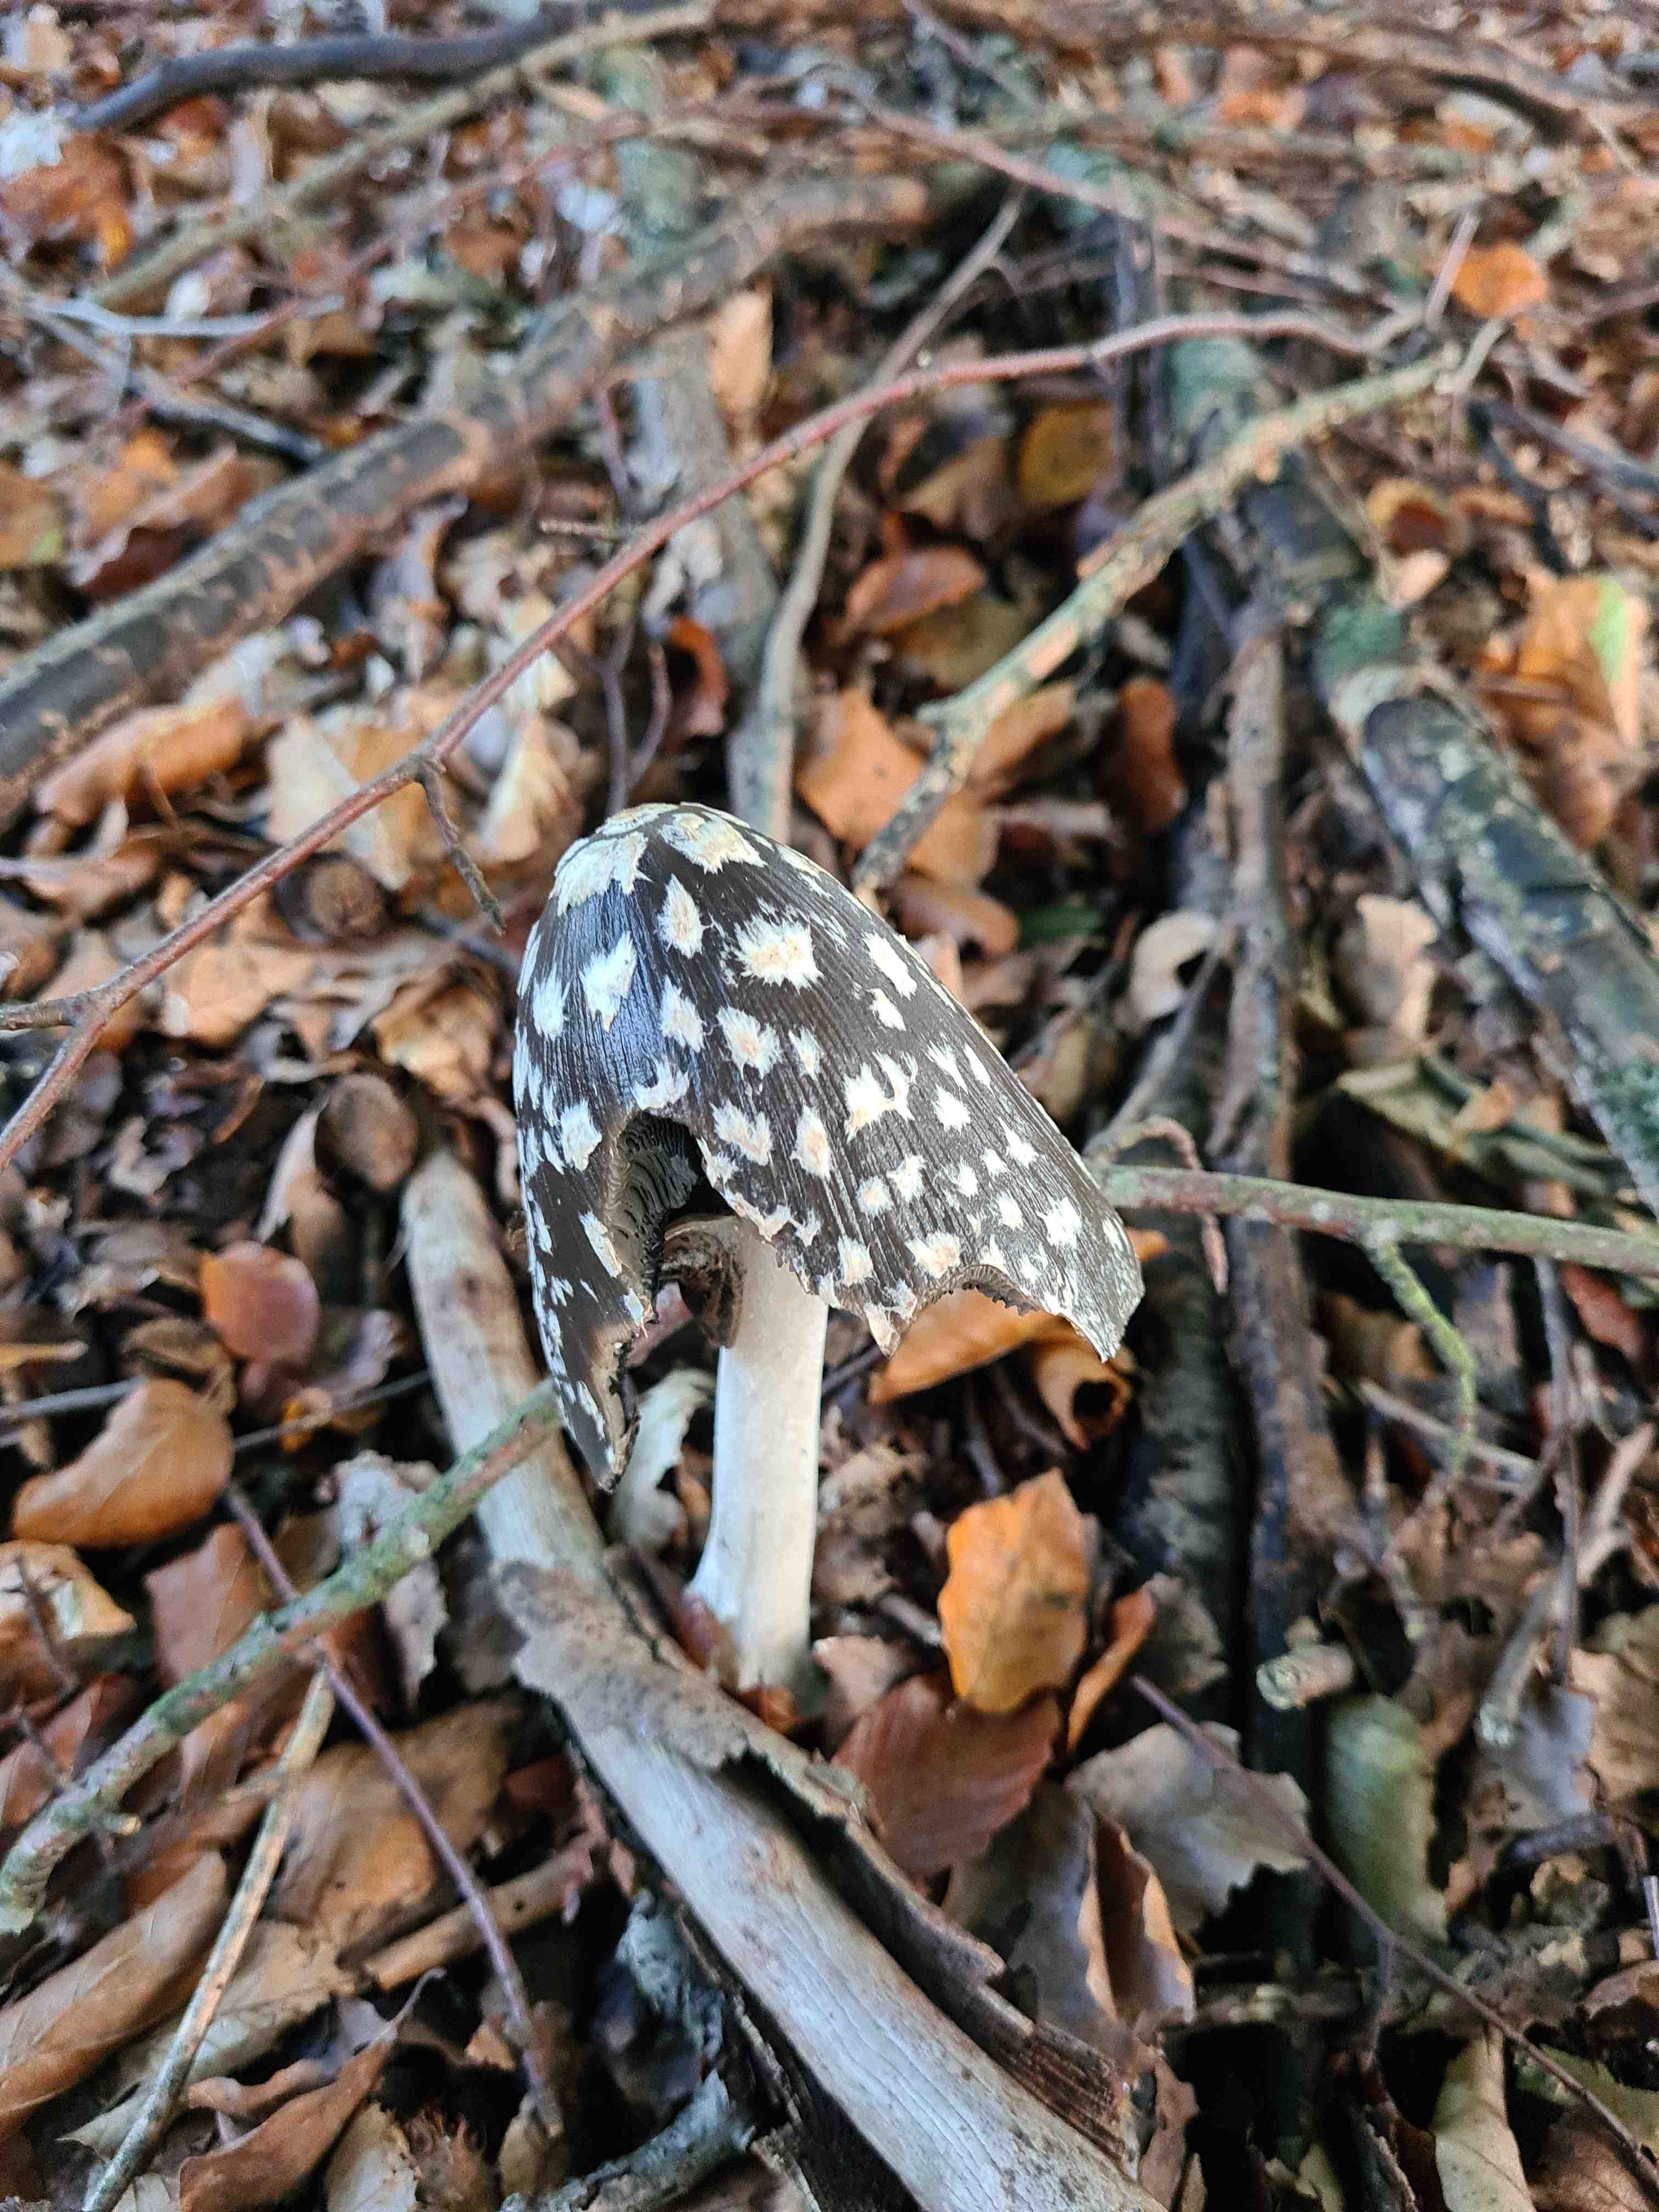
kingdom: Fungi
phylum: Basidiomycota
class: Agaricomycetes
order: Agaricales
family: Psathyrellaceae
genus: Coprinopsis
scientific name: Coprinopsis picacea
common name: skade-blækhat
